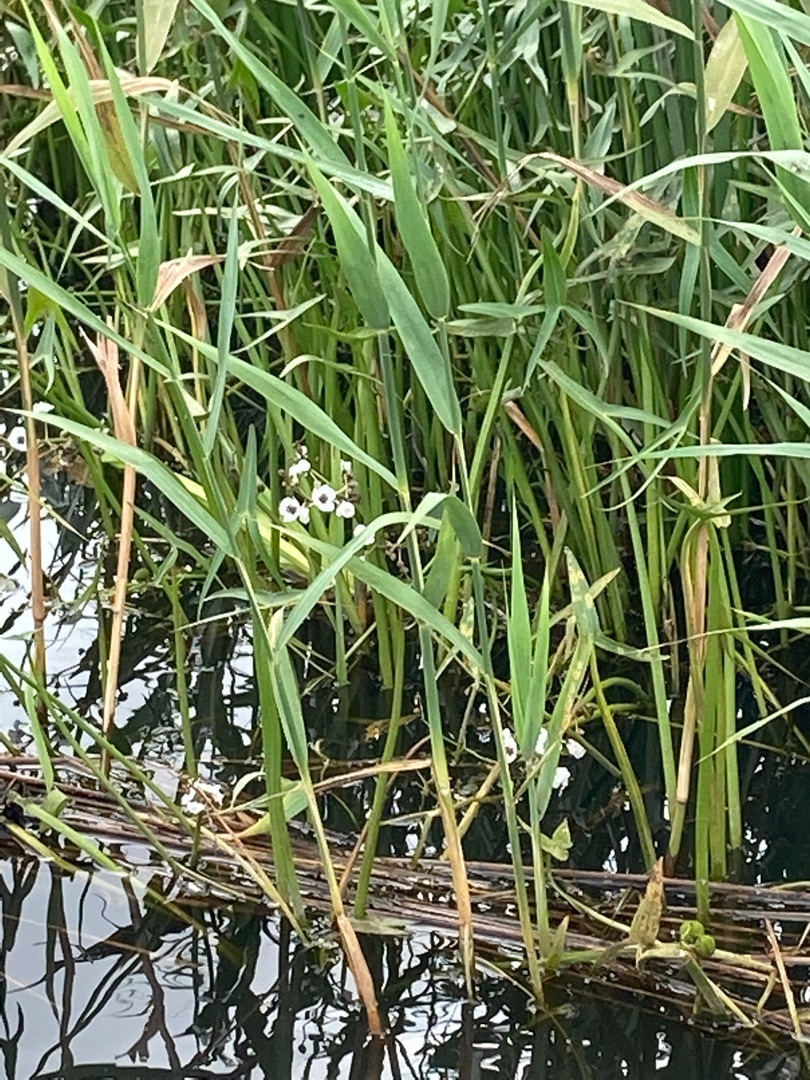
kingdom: Plantae
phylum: Tracheophyta
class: Liliopsida
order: Alismatales
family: Alismataceae
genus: Sagittaria
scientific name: Sagittaria sagittifolia
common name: Pilblad
